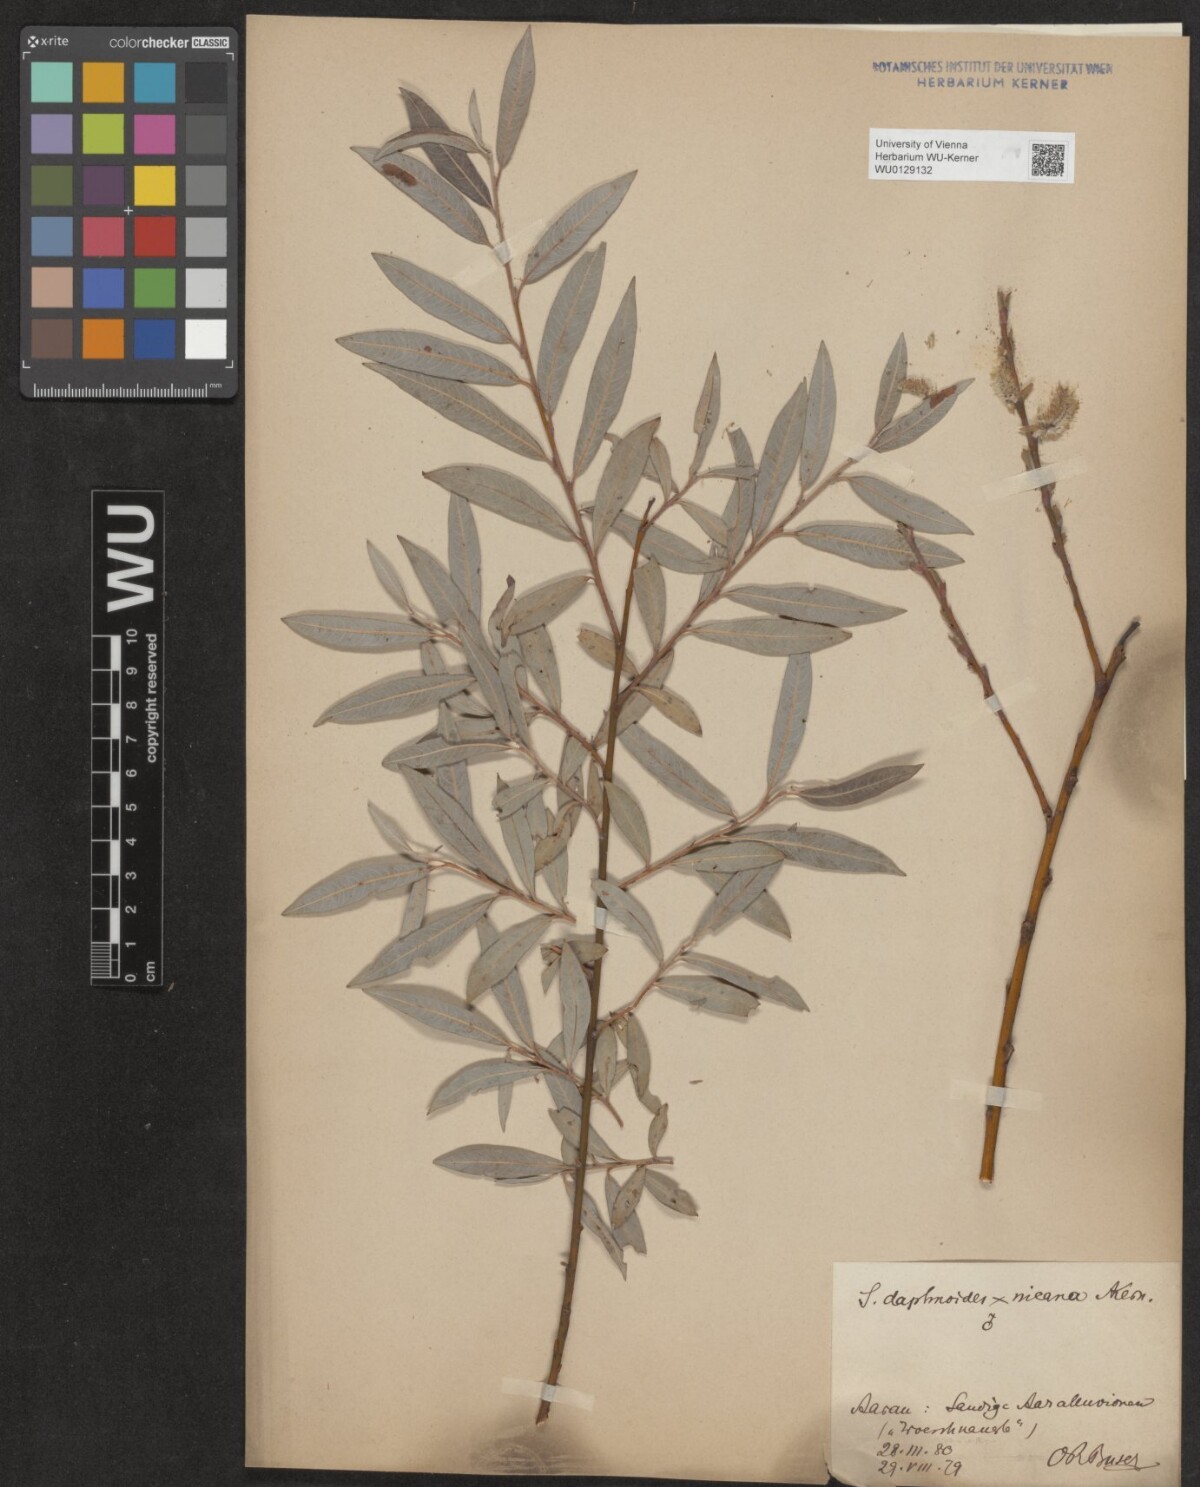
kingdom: Plantae
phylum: Tracheophyta
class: Magnoliopsida
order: Malpighiales
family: Salicaceae
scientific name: Salicaceae
